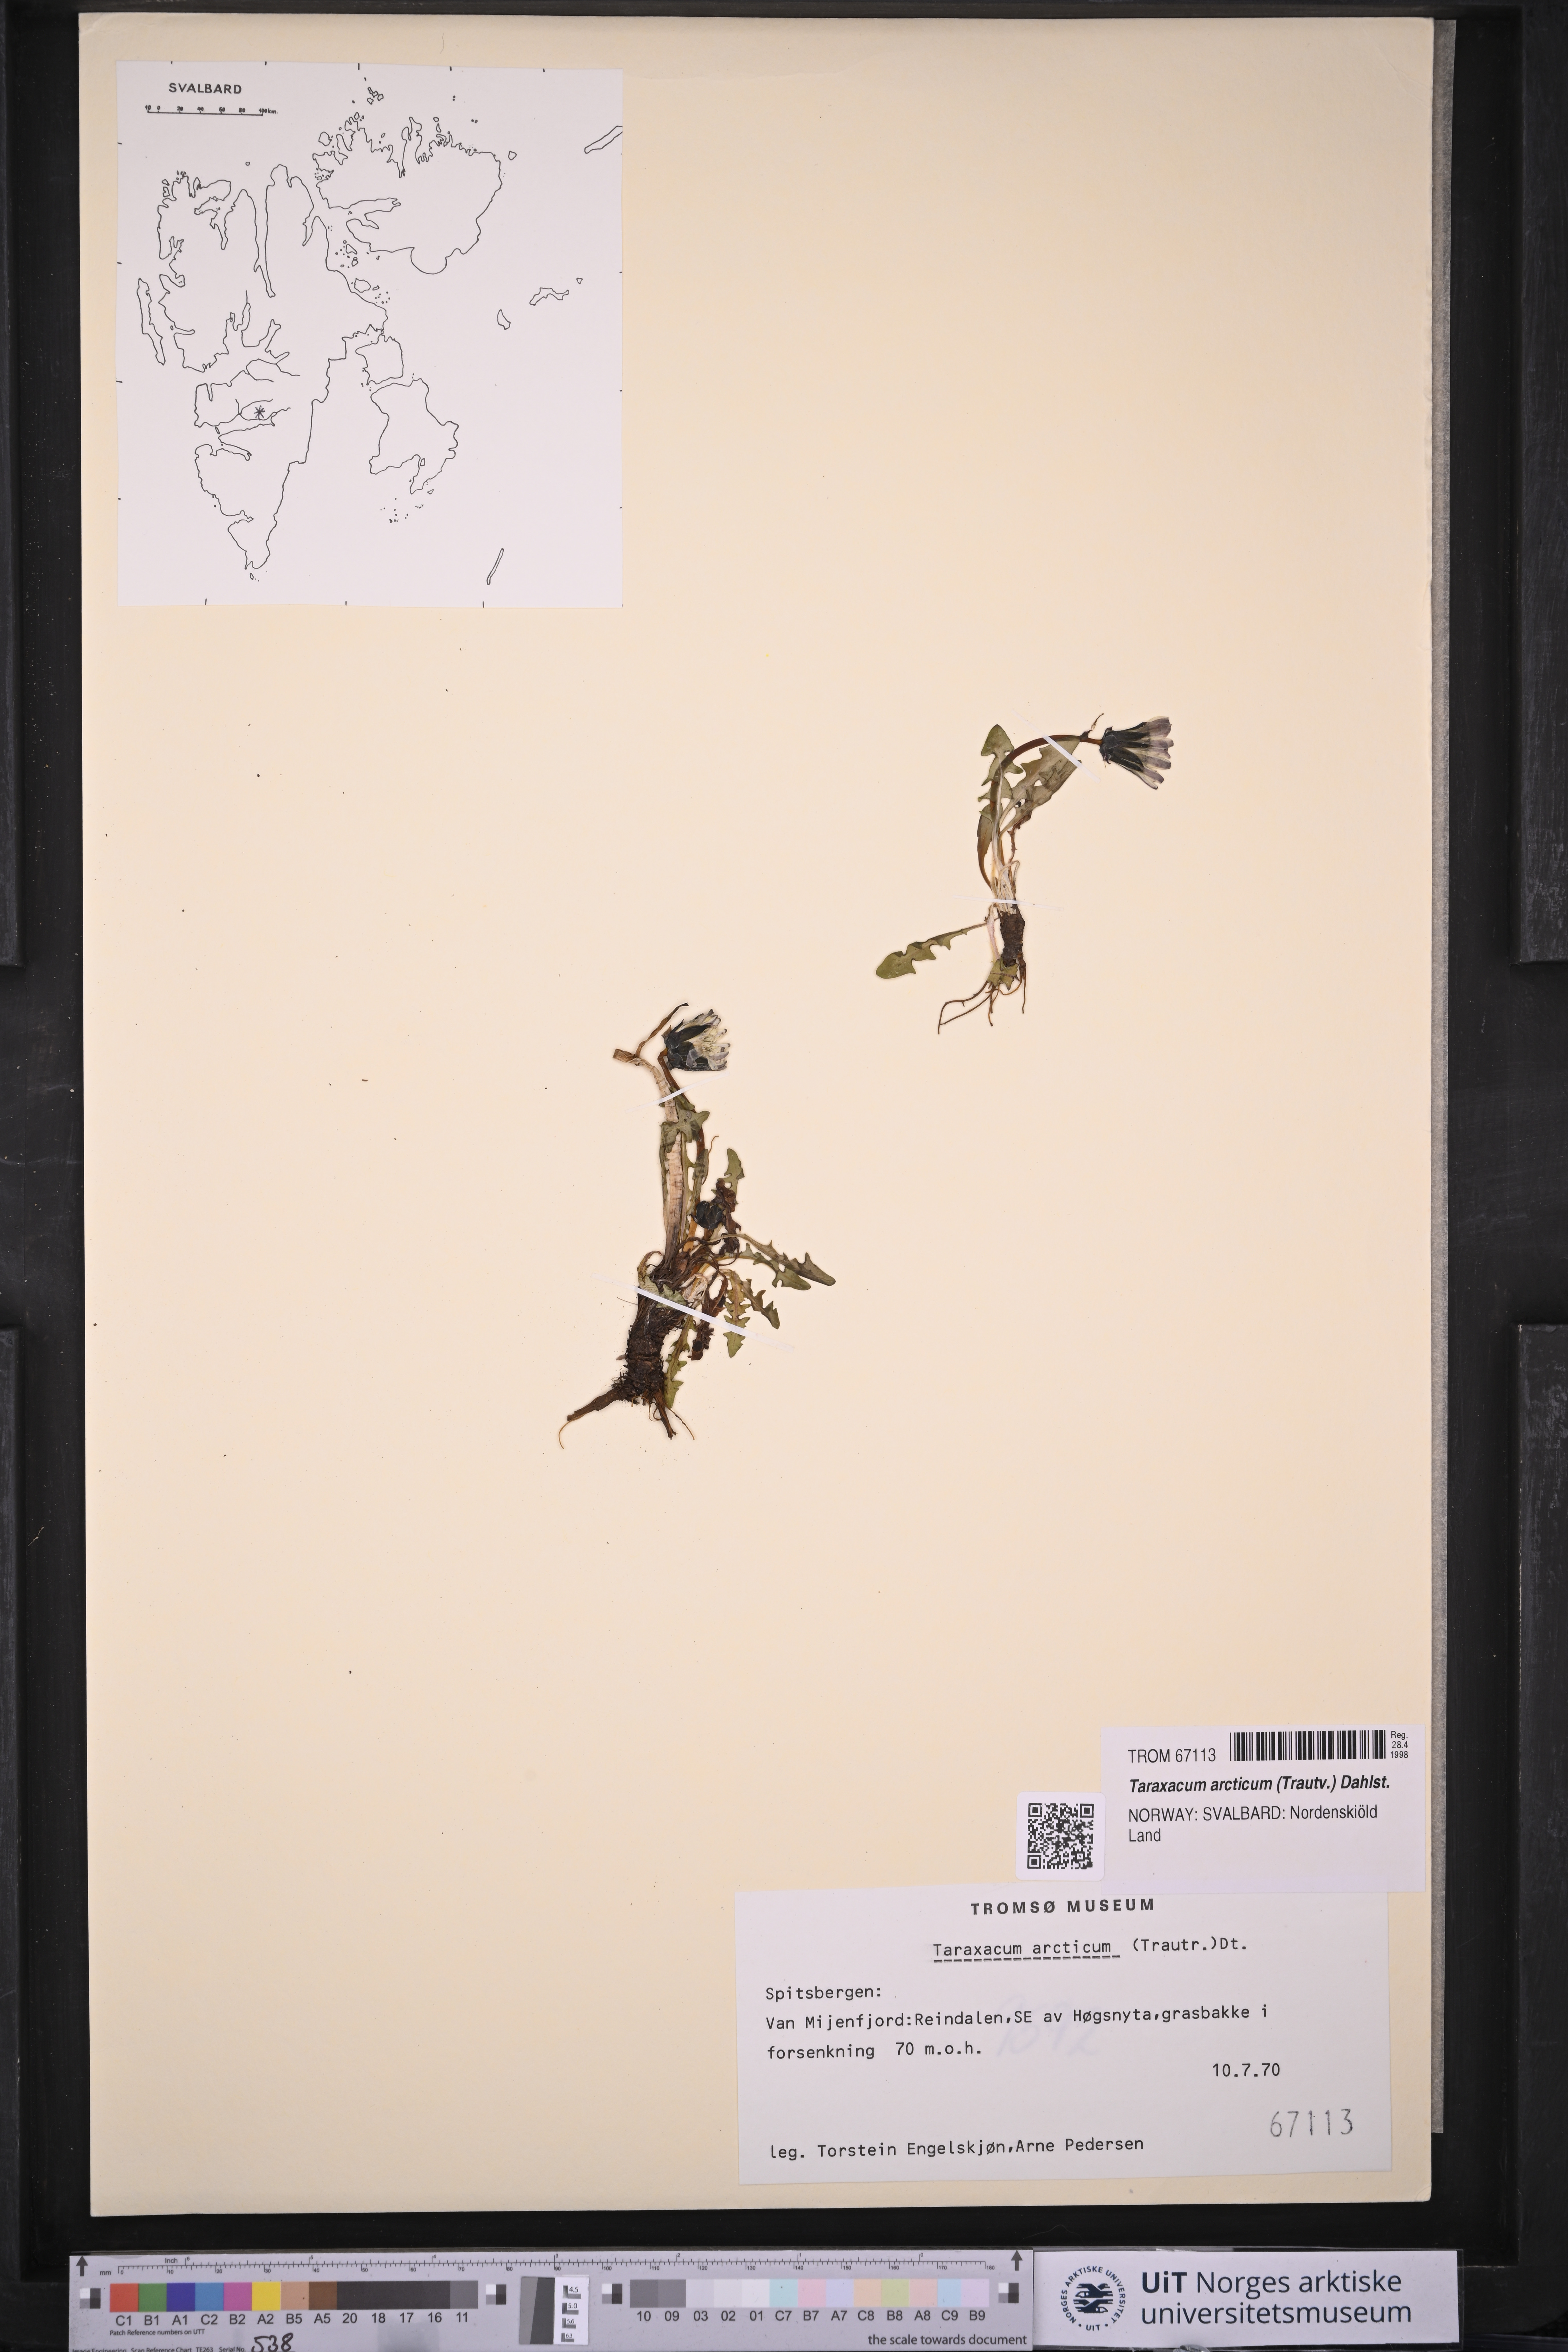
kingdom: Plantae
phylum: Tracheophyta
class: Magnoliopsida
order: Asterales
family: Asteraceae
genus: Taraxacum
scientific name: Taraxacum arcticum
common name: Arctic dandelion
